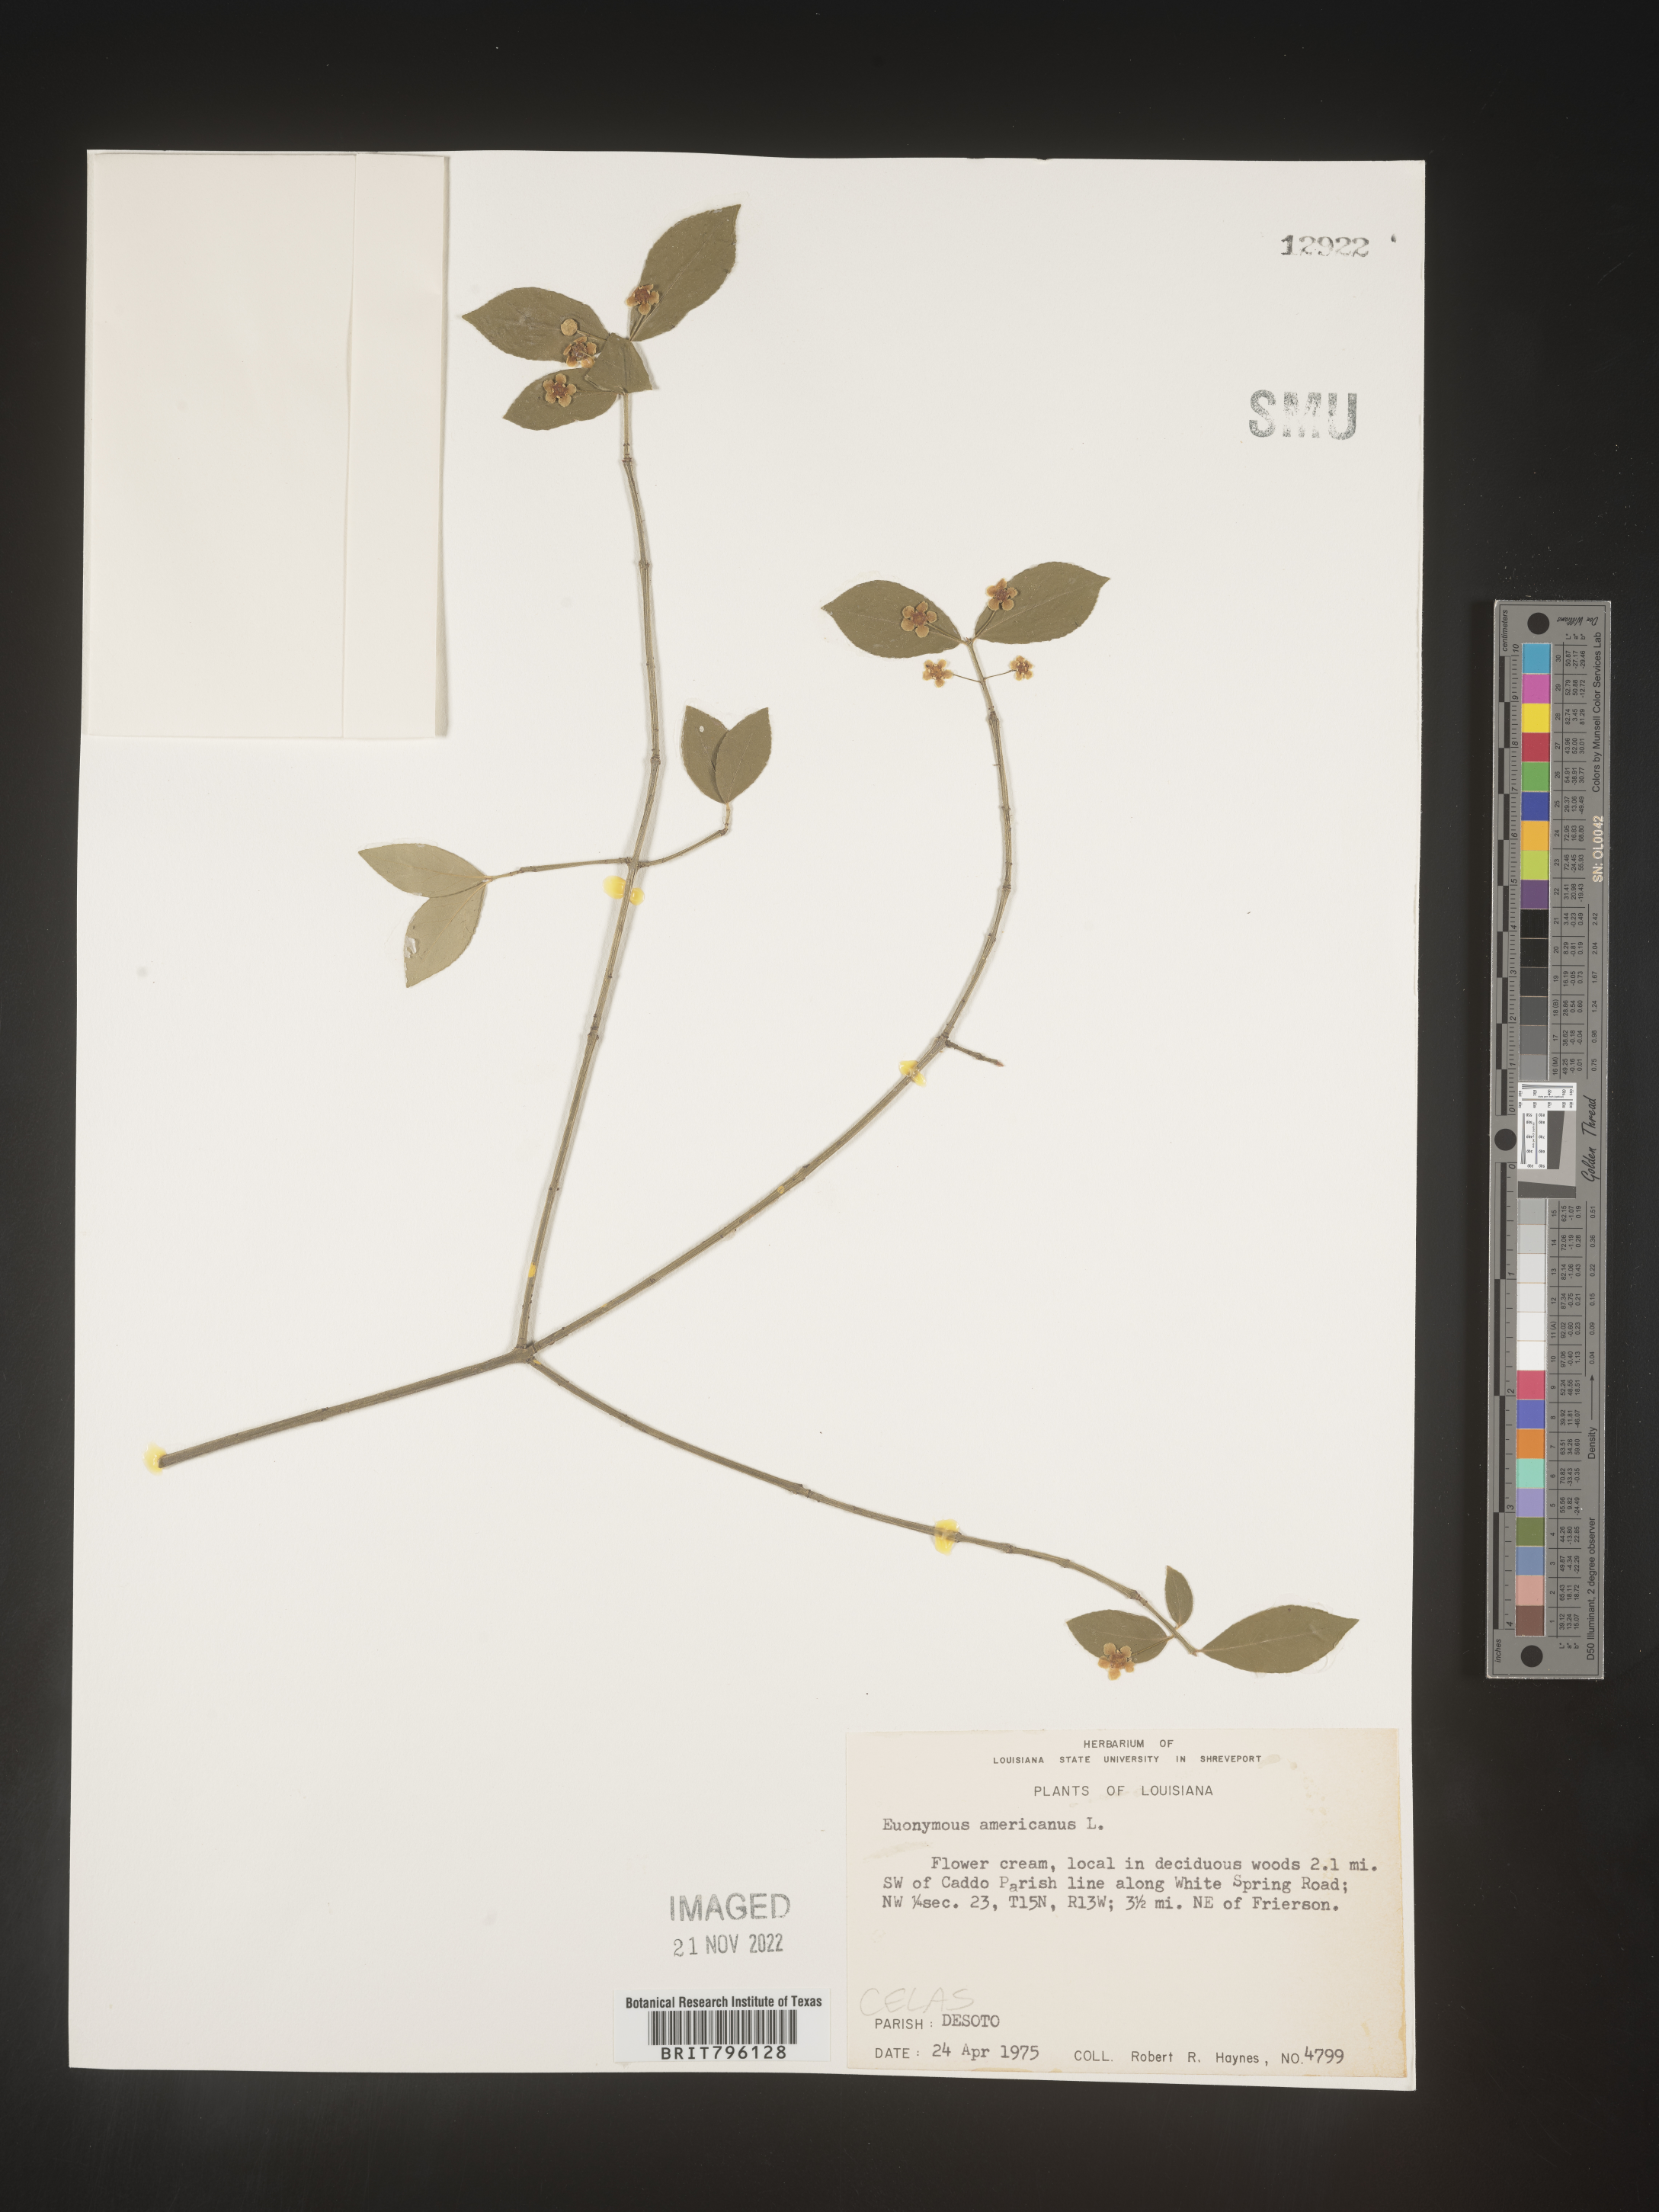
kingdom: Plantae
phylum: Tracheophyta
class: Magnoliopsida
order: Celastrales
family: Celastraceae
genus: Euonymus
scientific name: Euonymus americanus
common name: Bursting-heart
